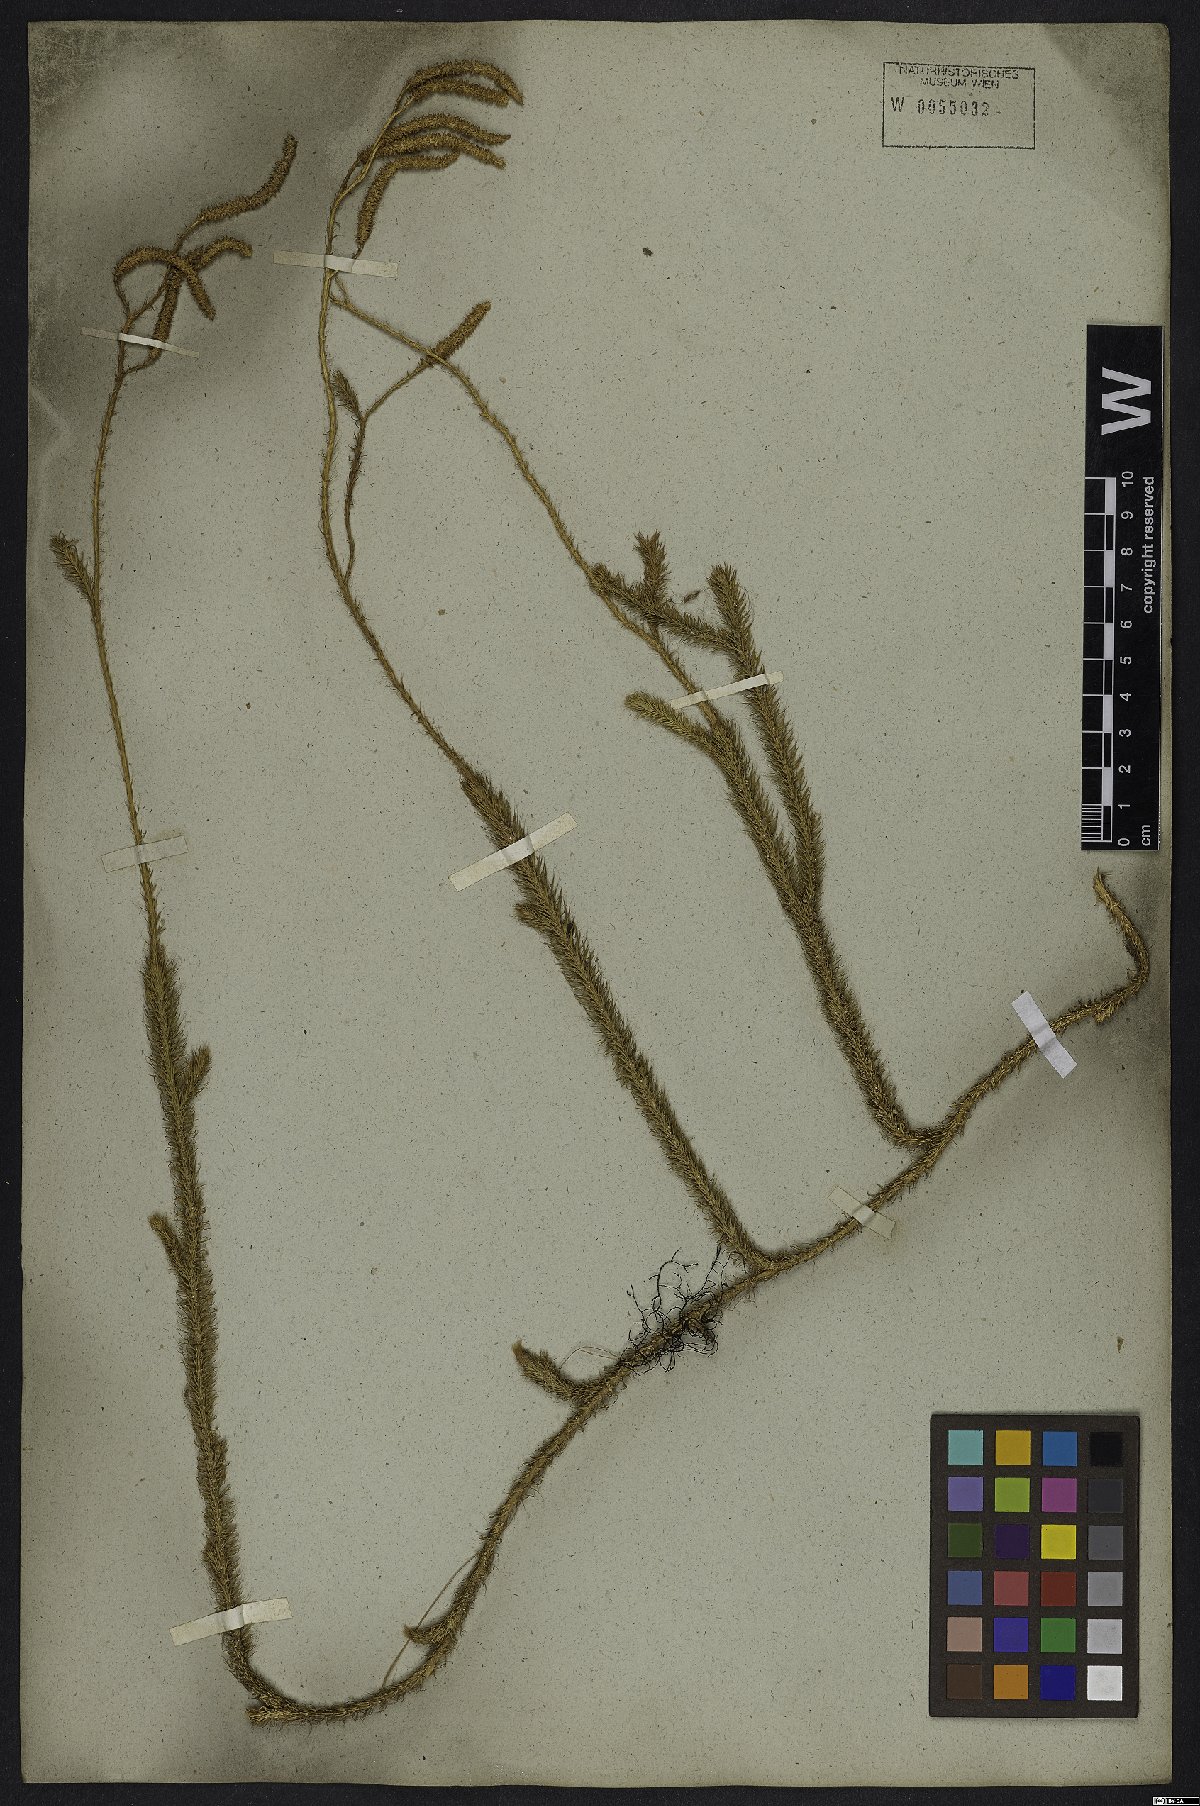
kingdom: Plantae
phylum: Tracheophyta
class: Lycopodiopsida
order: Lycopodiales
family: Lycopodiaceae
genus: Lycopodium
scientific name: Lycopodium clavatum
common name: Stag's-horn clubmoss
